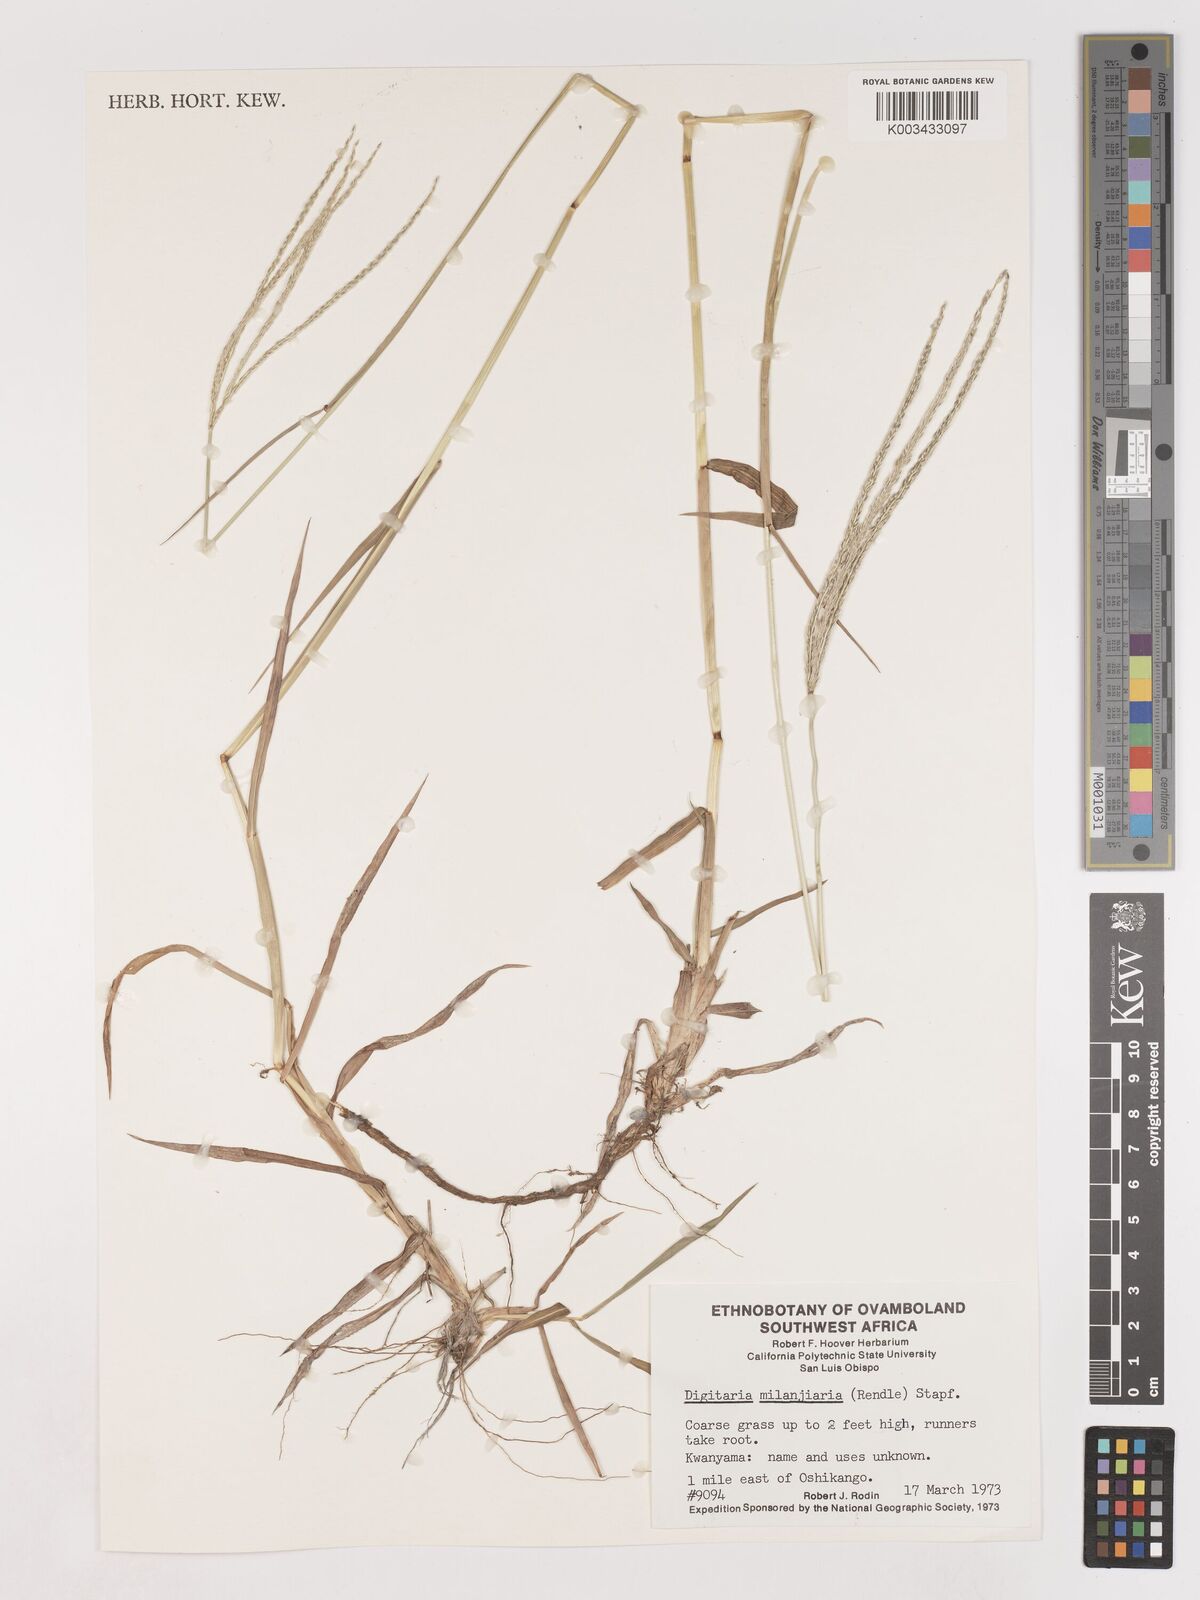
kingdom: Plantae
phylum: Tracheophyta
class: Liliopsida
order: Poales
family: Poaceae
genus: Digitaria
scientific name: Digitaria milanjiana
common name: Madagascar crabgrass
